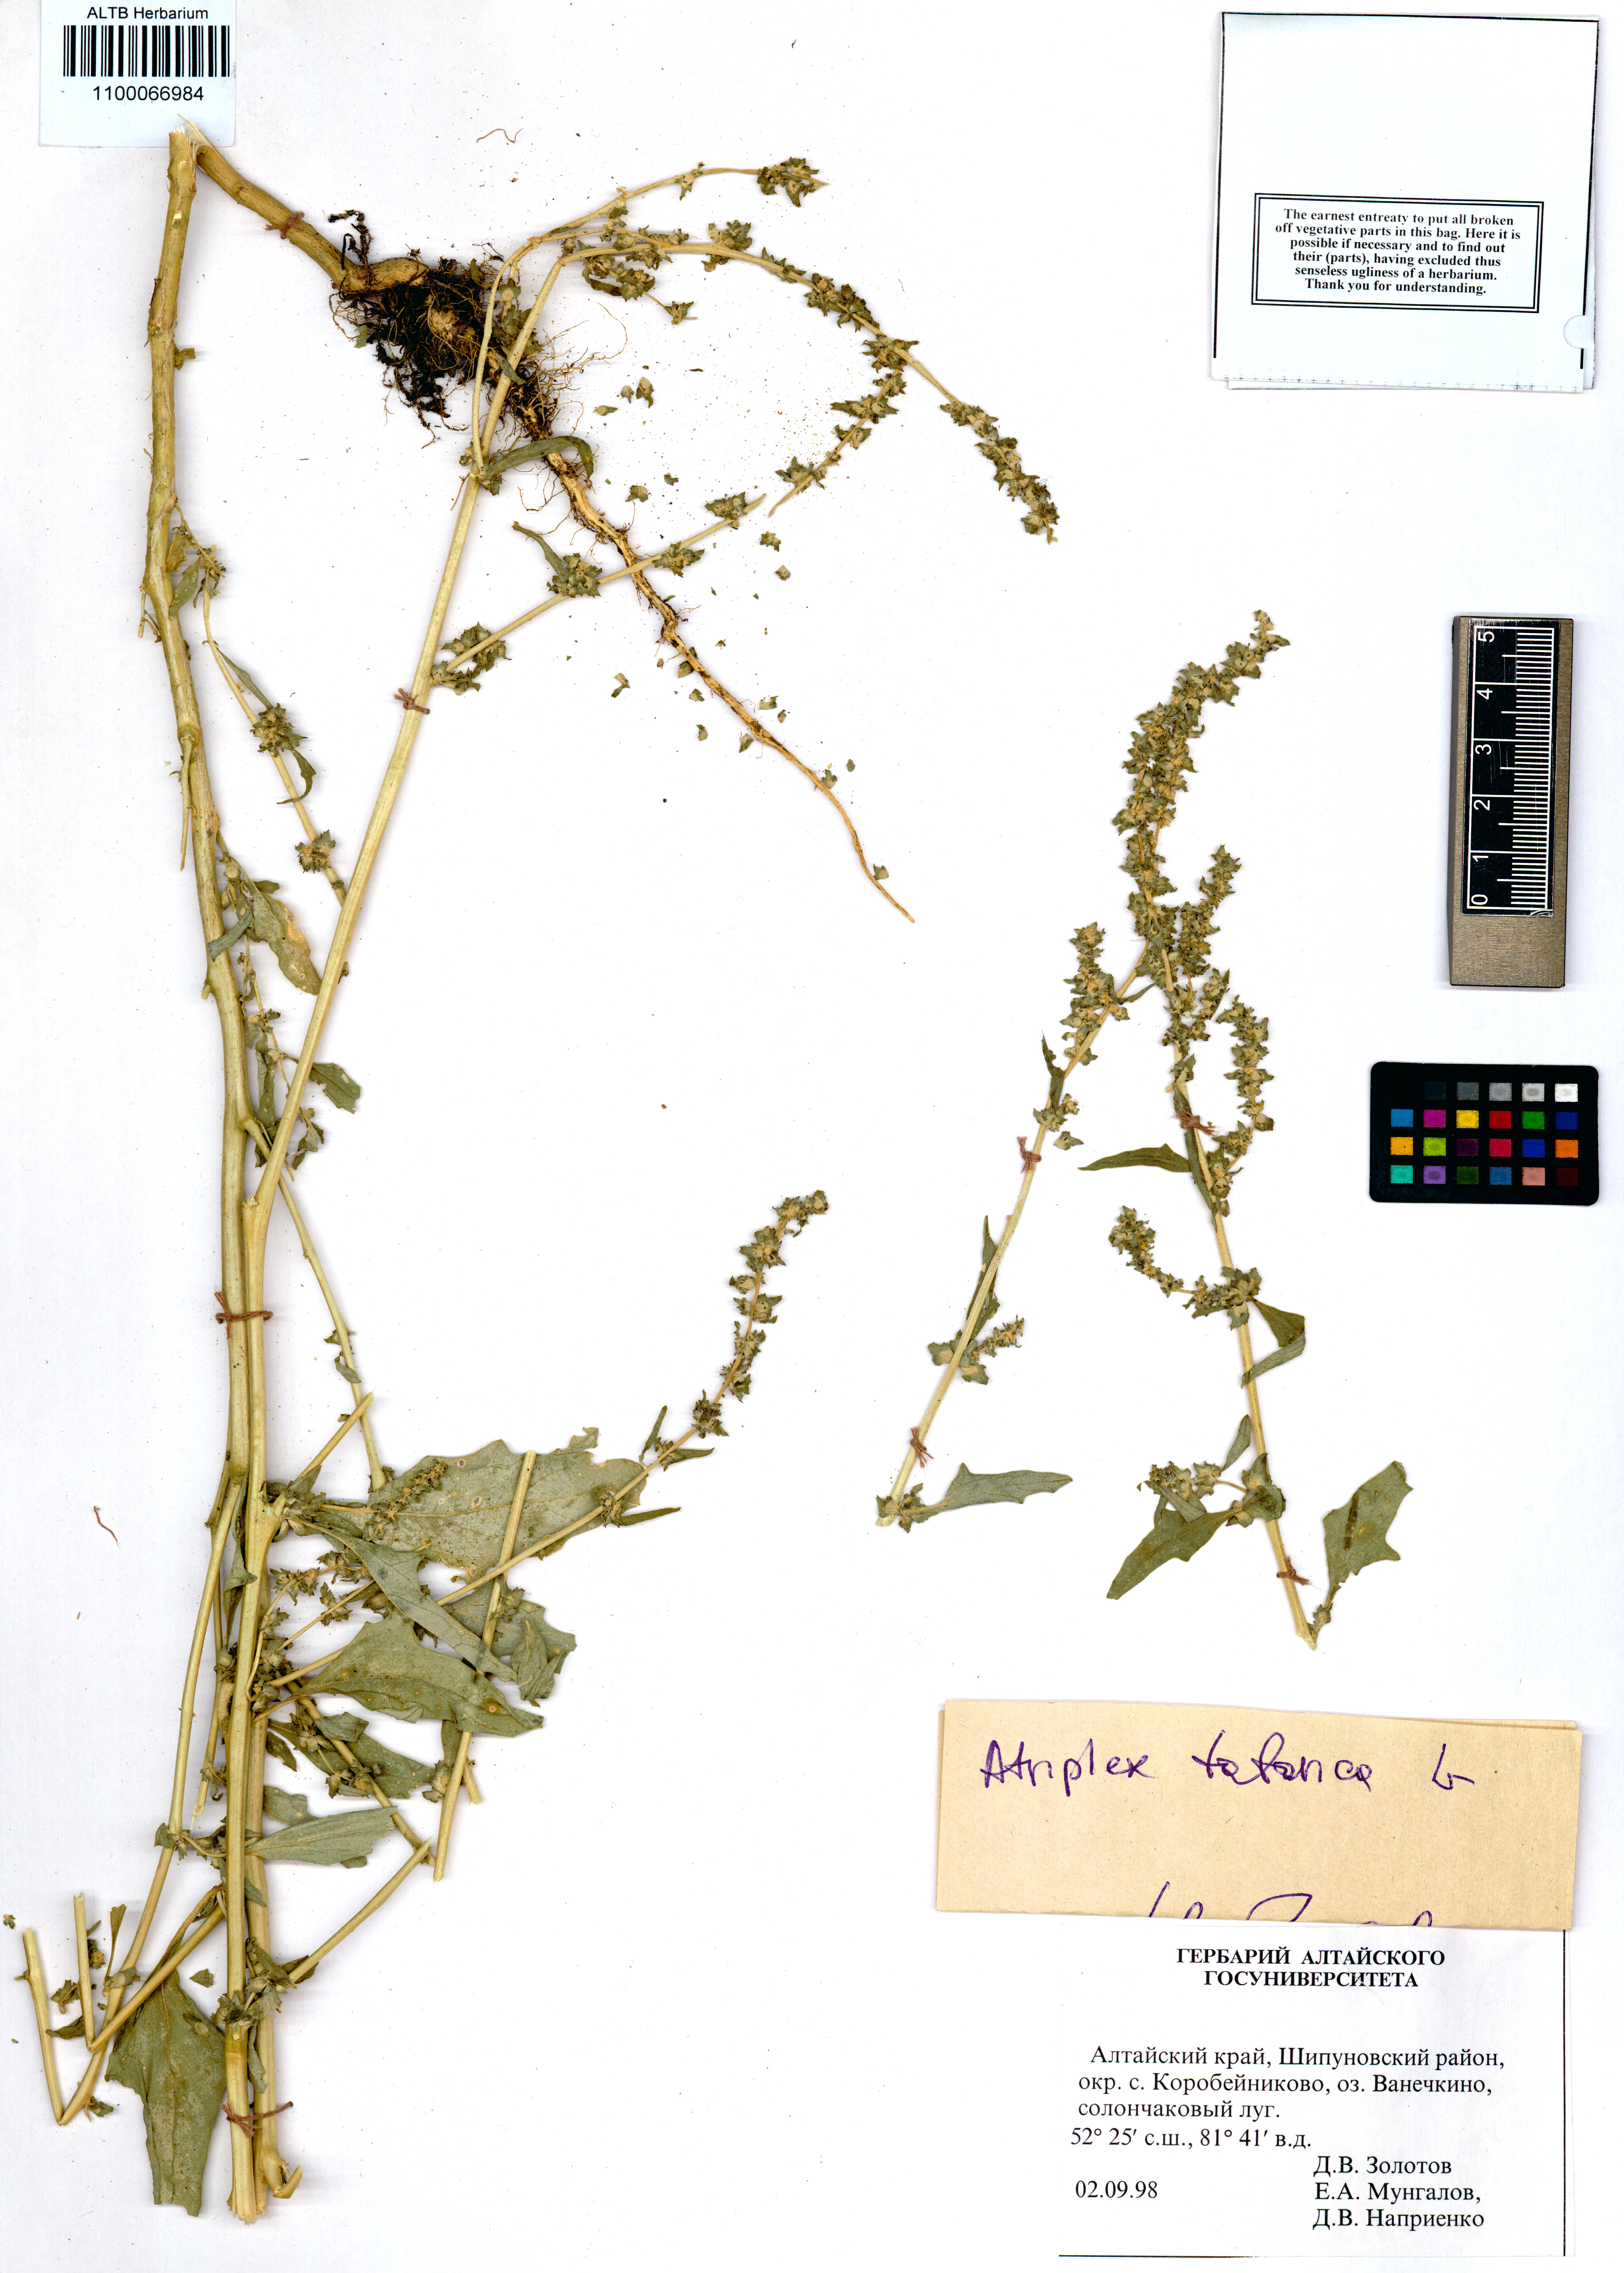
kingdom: Plantae
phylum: Tracheophyta
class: Magnoliopsida
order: Caryophyllales
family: Amaranthaceae
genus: Atriplex
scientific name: Atriplex tatarica
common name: Tatarian orache
